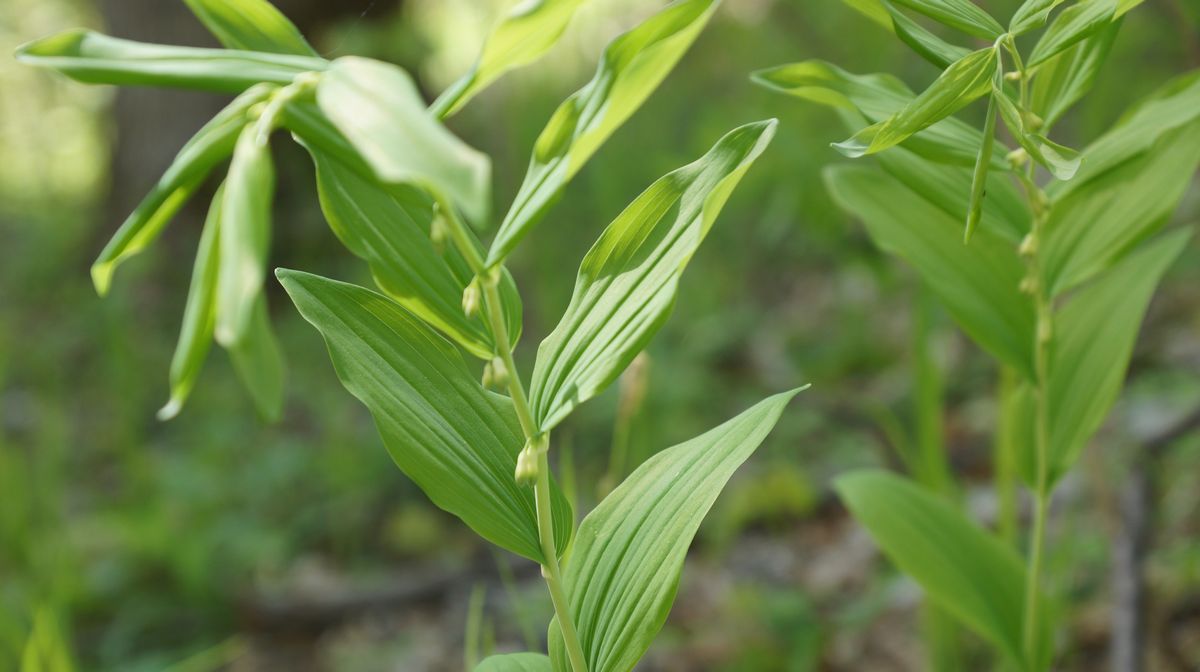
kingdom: Plantae
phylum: Tracheophyta
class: Liliopsida
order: Asparagales
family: Asparagaceae
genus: Polygonatum
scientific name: Polygonatum
